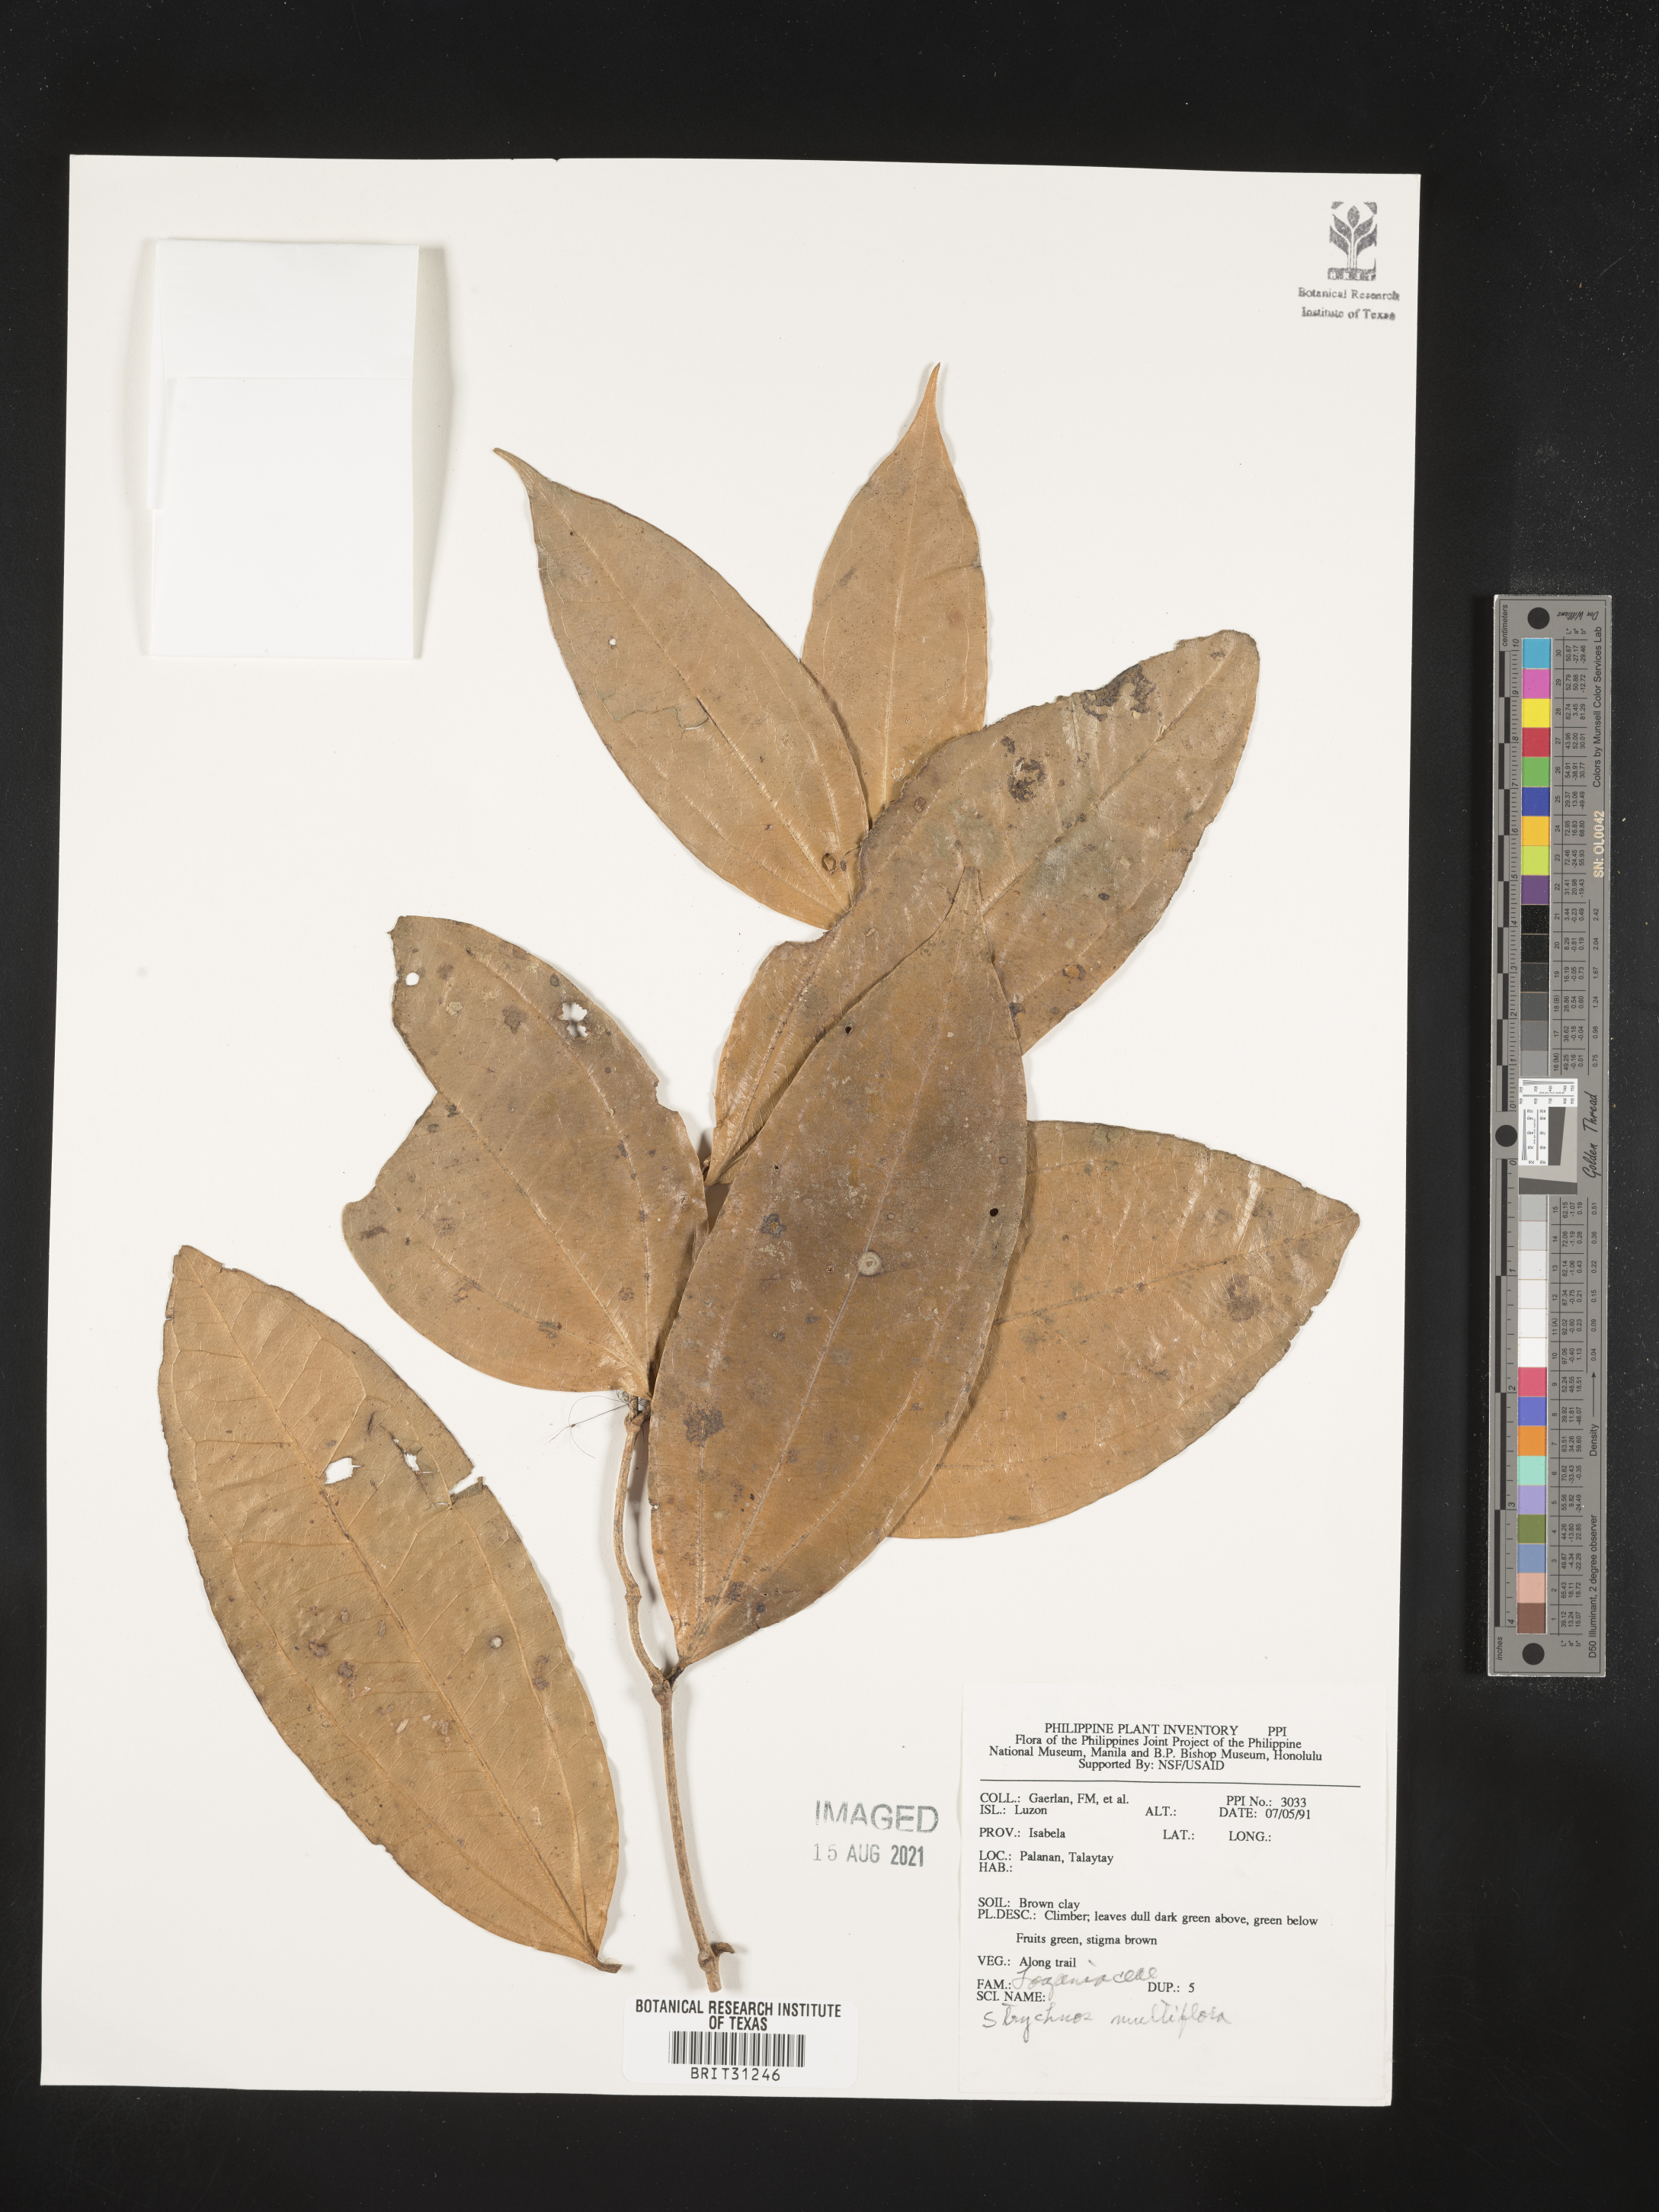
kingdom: Plantae
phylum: Tracheophyta
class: Magnoliopsida
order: Gentianales
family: Loganiaceae
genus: Strychnos
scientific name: Strychnos minor
